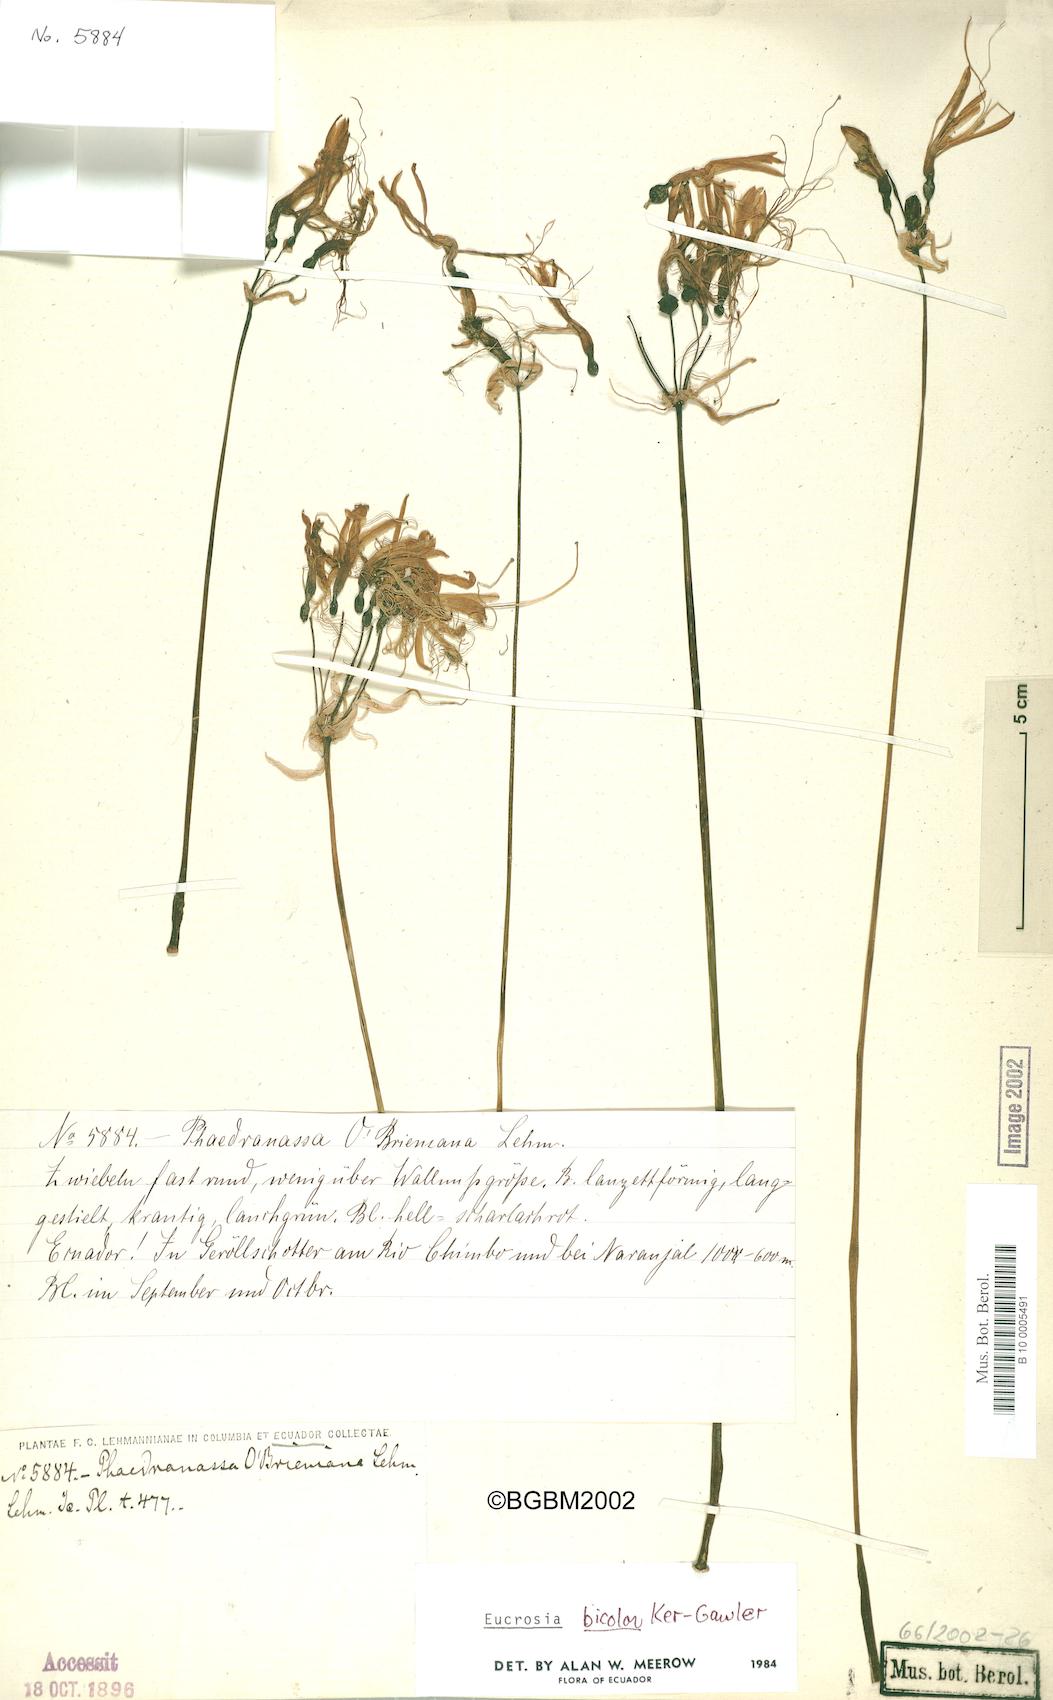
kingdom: Plantae
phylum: Tracheophyta
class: Liliopsida
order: Asparagales
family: Amaryllidaceae
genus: Eucrosia
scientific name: Eucrosia bicolor
